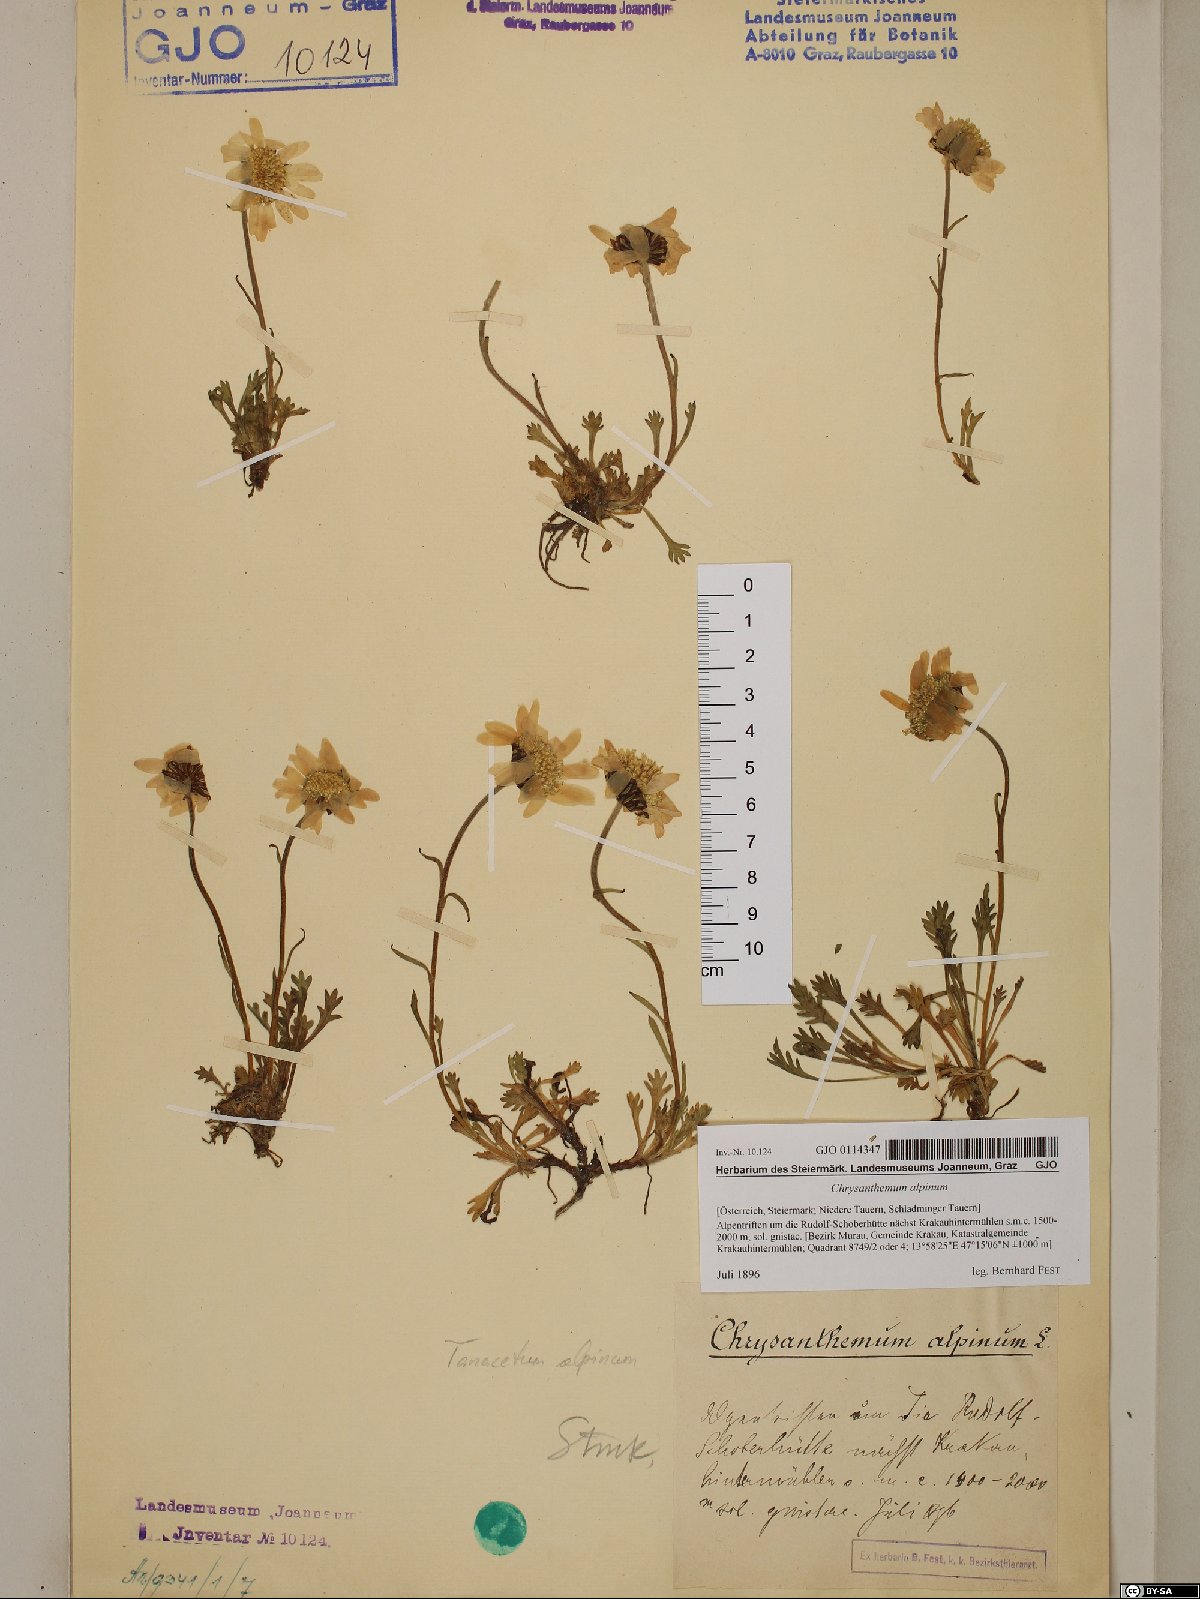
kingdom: Plantae
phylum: Tracheophyta
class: Magnoliopsida
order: Asterales
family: Asteraceae
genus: Leucanthemopsis
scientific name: Leucanthemopsis alpina
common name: Alpine moon daisy
